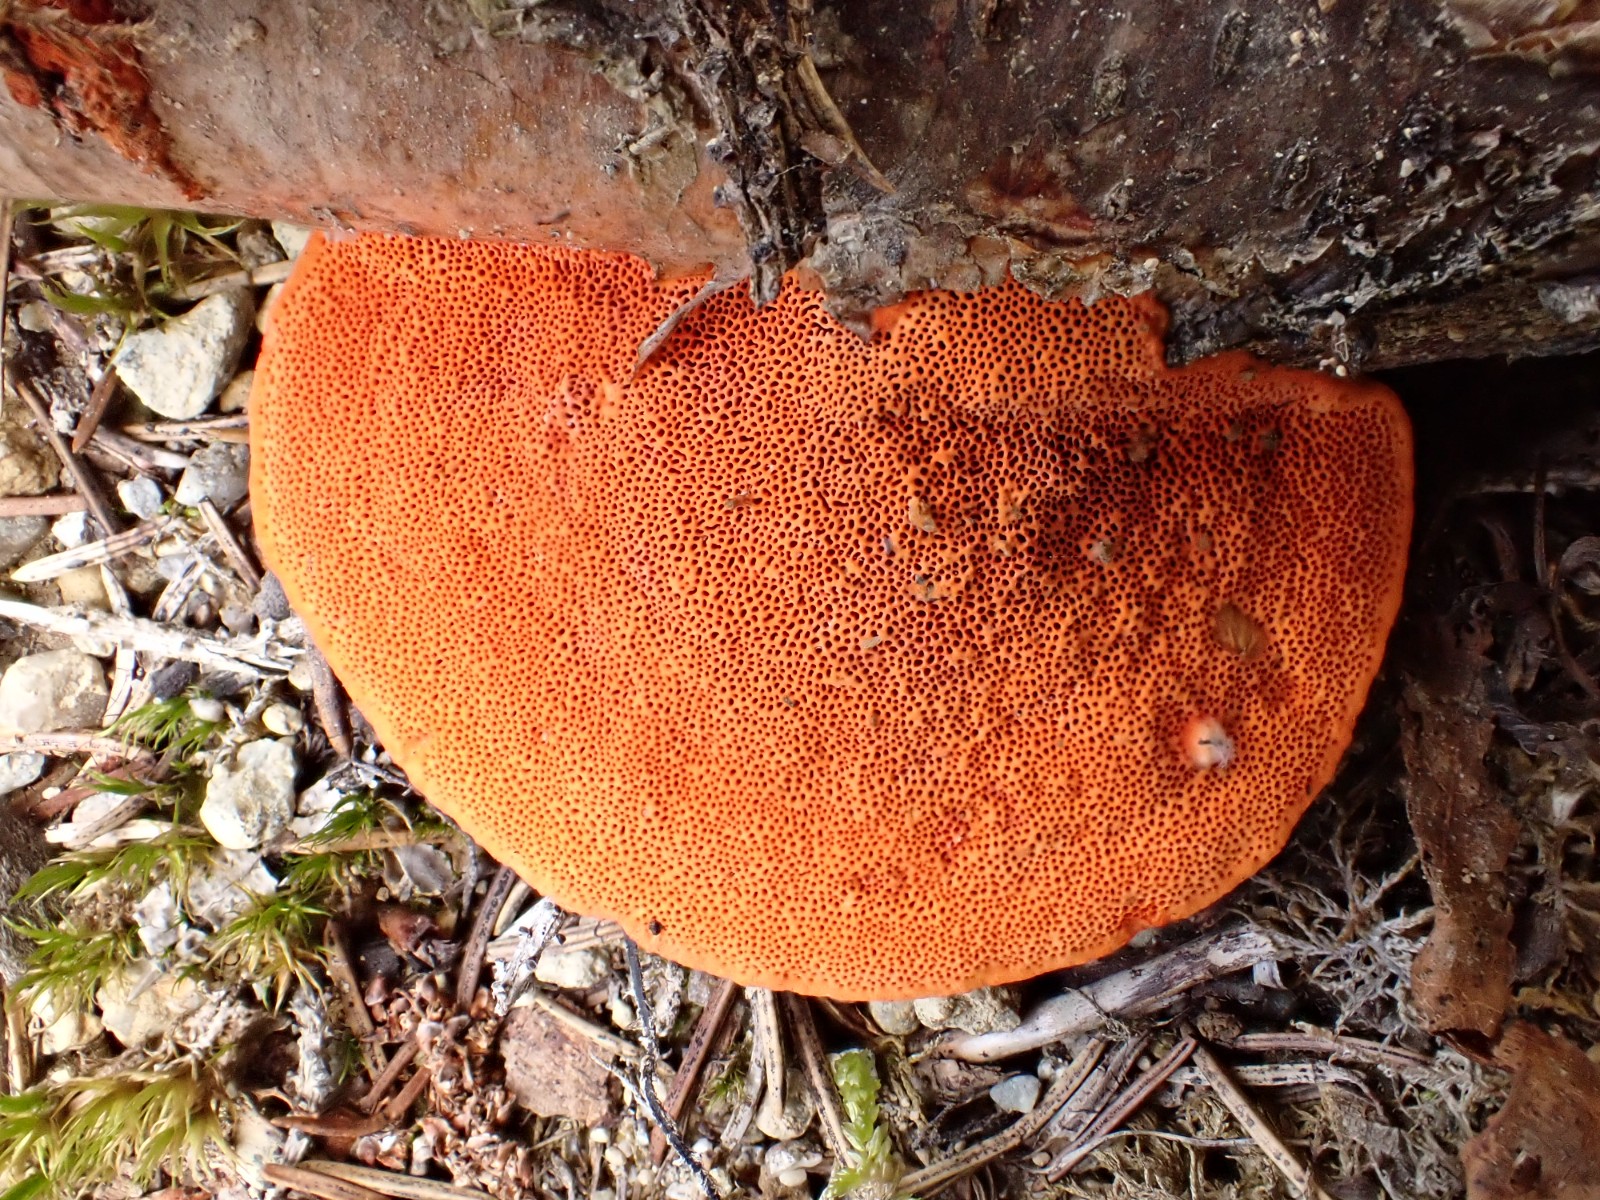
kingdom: Fungi
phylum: Basidiomycota
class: Agaricomycetes
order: Polyporales
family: Polyporaceae
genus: Trametes
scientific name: Trametes cinnabarina
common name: cinnoberporesvamp
